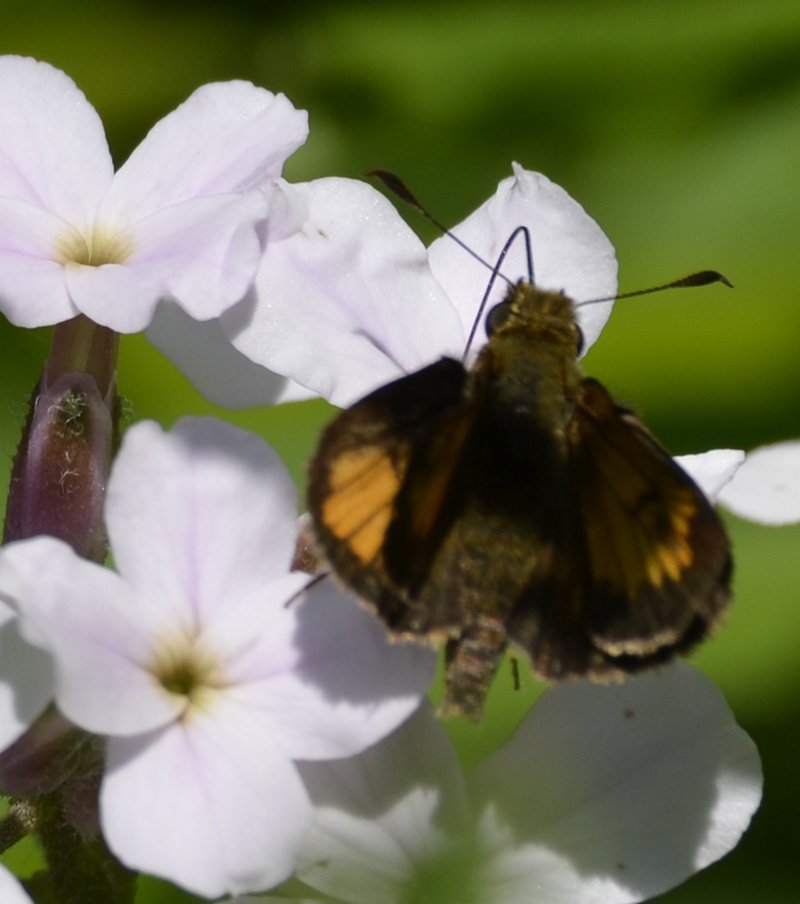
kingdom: Animalia
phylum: Arthropoda
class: Insecta
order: Lepidoptera
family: Hesperiidae
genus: Lon
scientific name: Lon hobomok
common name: Hobomok Skipper
